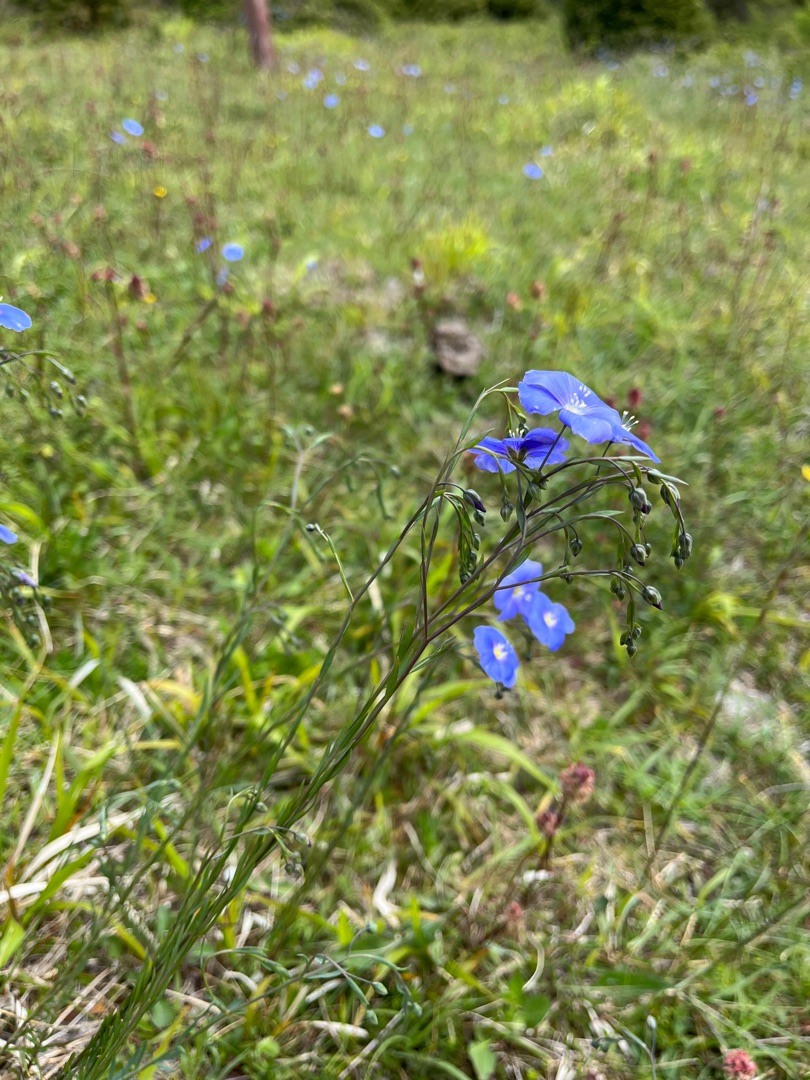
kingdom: Plantae
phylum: Tracheophyta
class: Magnoliopsida
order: Malpighiales
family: Linaceae
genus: Linum
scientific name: Linum austriacum
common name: Østrigsk hør
